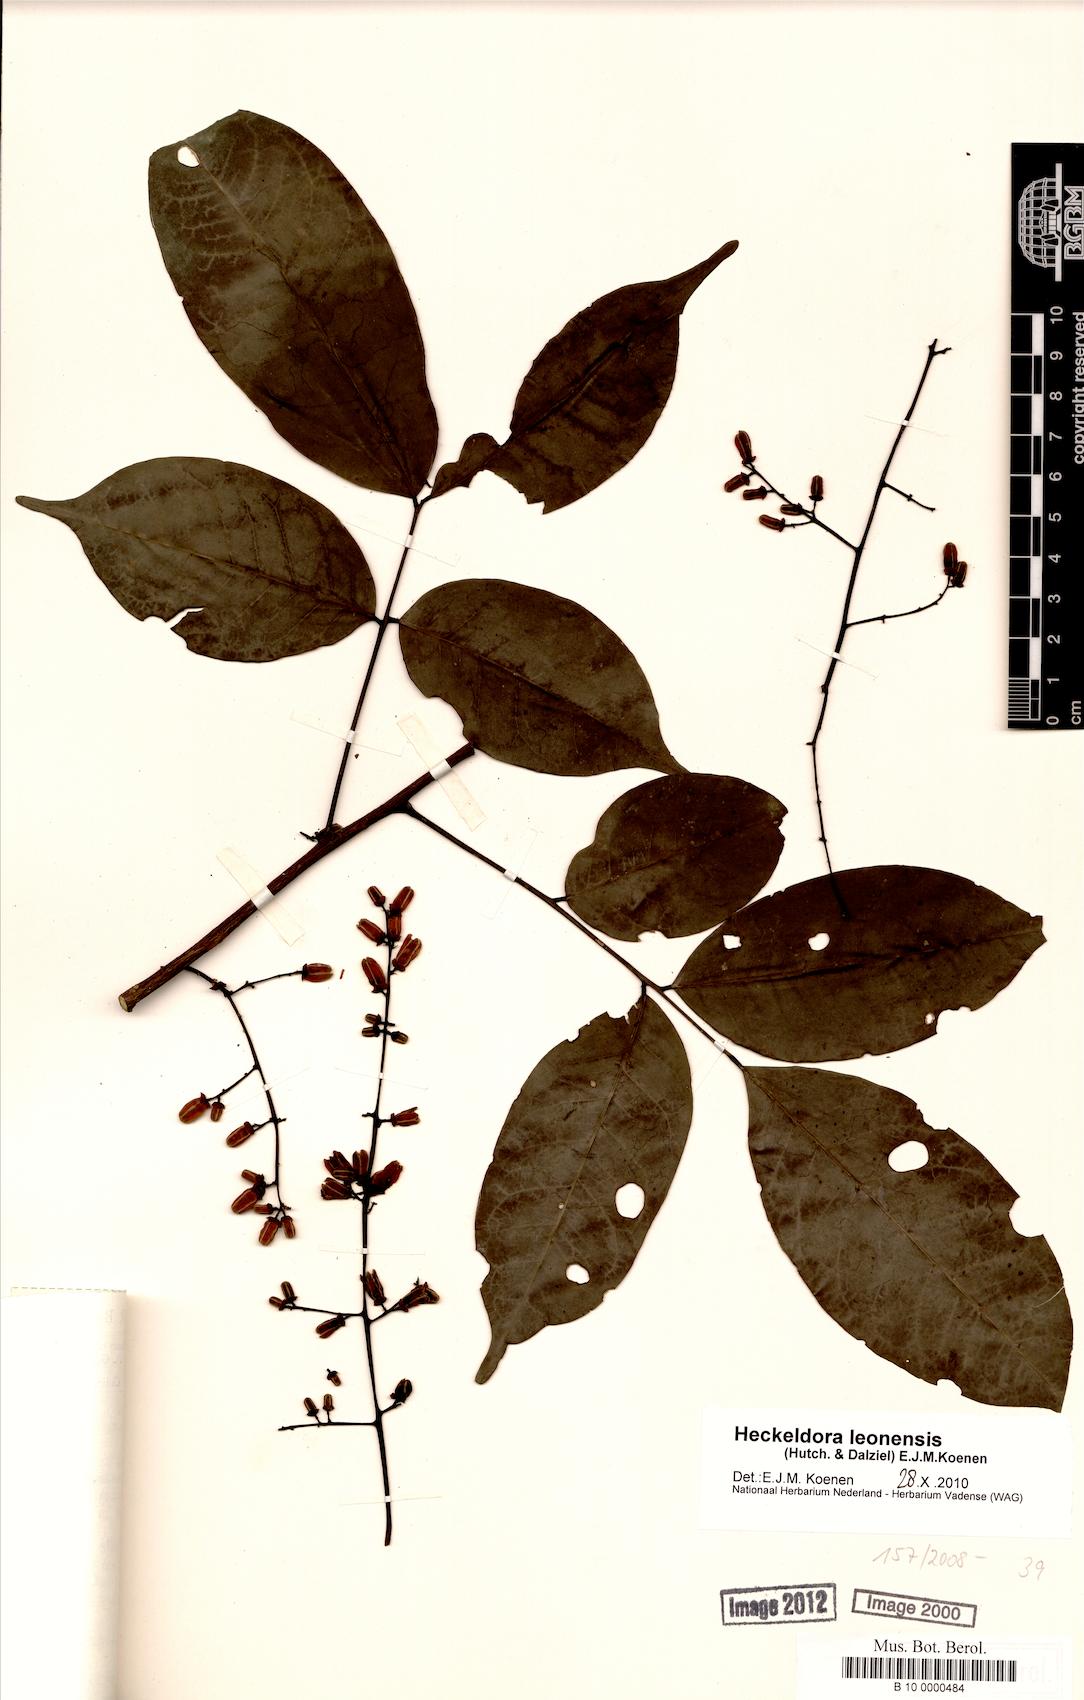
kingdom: Plantae
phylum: Tracheophyta
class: Magnoliopsida
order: Sapindales
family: Meliaceae
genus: Heckeldora
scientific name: Heckeldora leonensis
